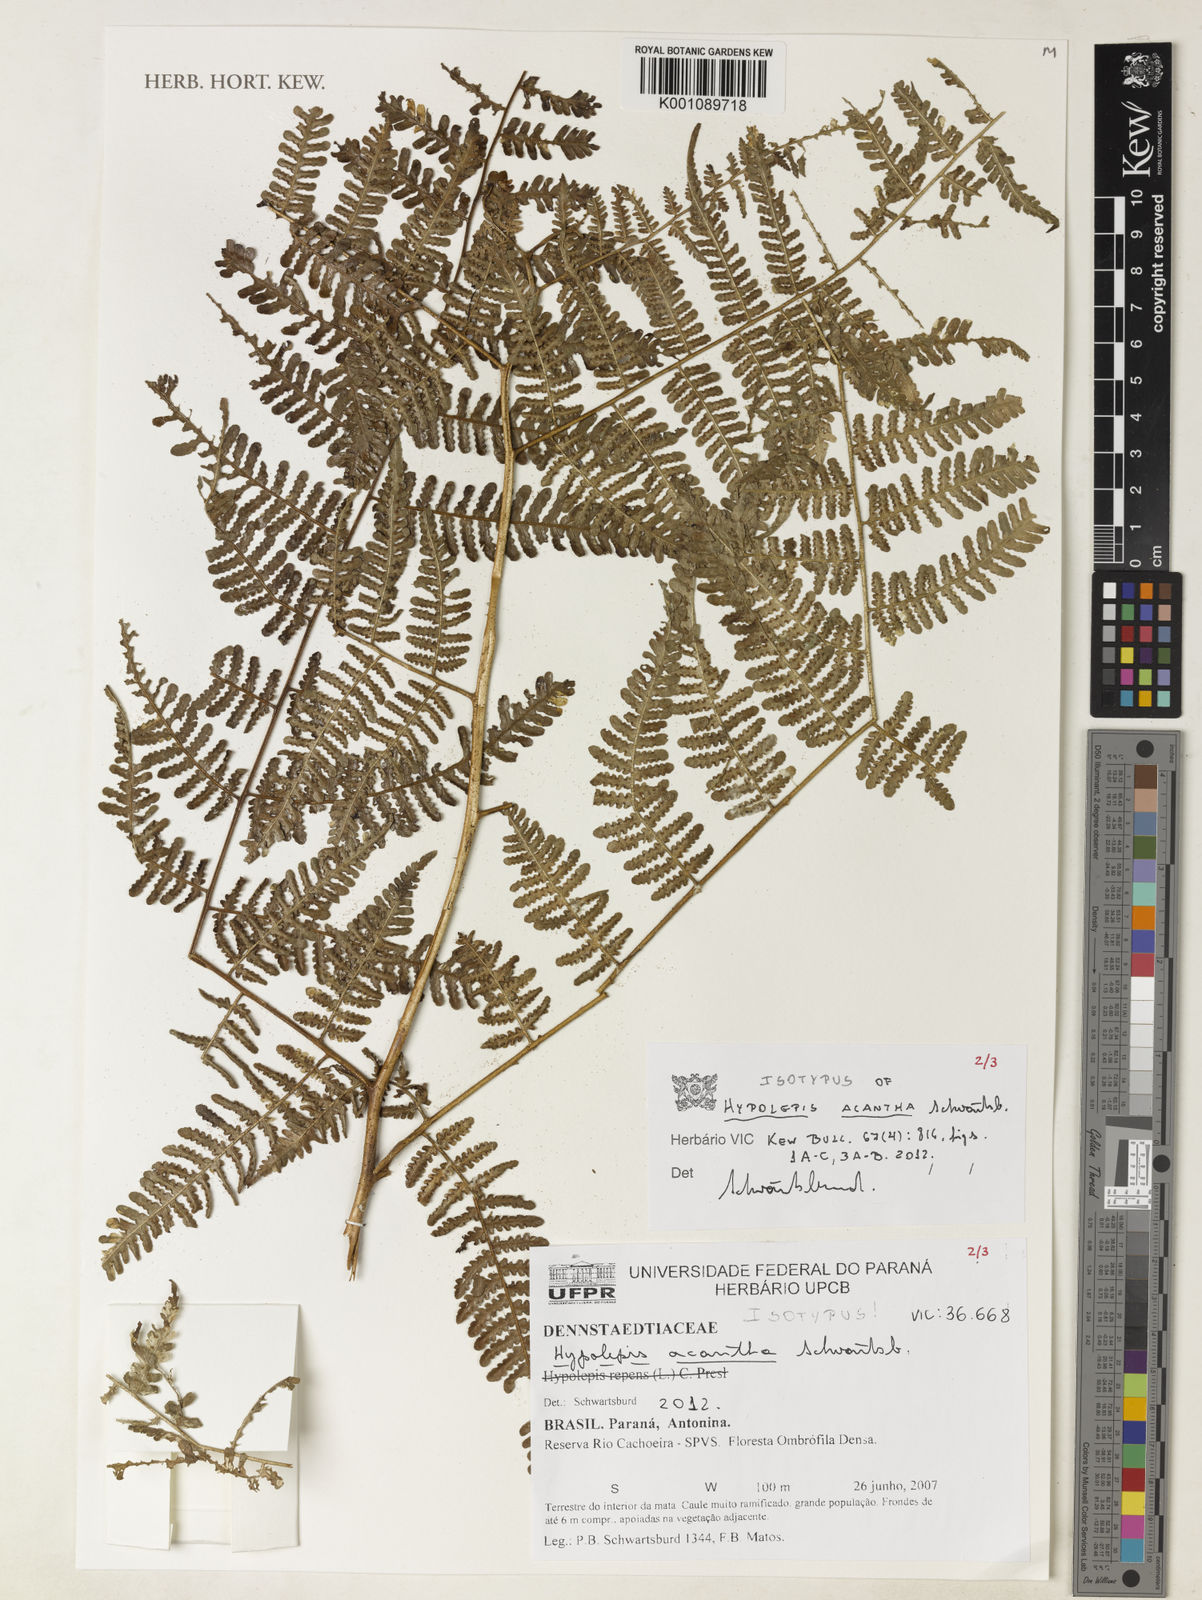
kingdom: Plantae
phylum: Tracheophyta
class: Polypodiopsida
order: Polypodiales
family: Dennstaedtiaceae
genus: Hypolepis
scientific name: Hypolepis acantha
